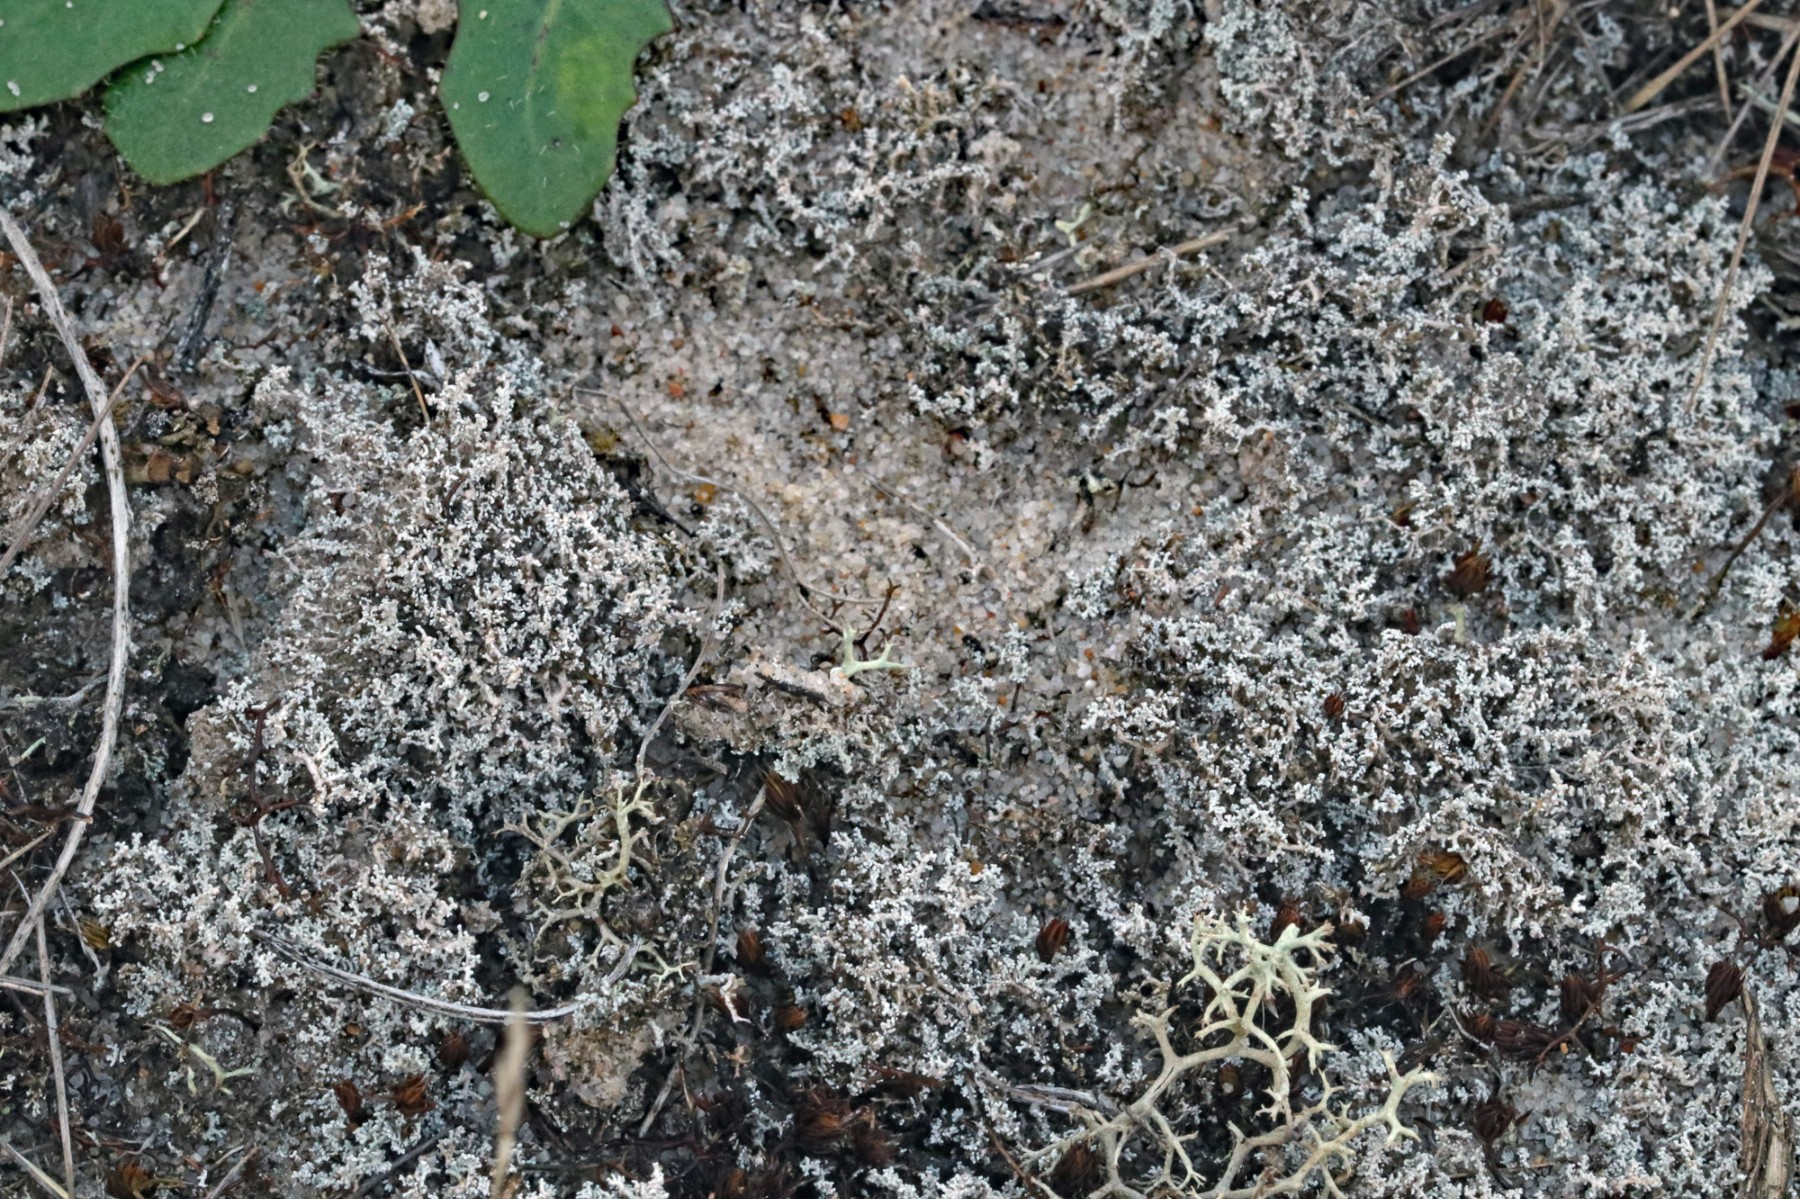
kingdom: Fungi
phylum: Ascomycota
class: Lecanoromycetes
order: Lecanorales
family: Stereocaulaceae
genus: Stereocaulon
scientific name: Stereocaulon condensatum
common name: lav korallav
